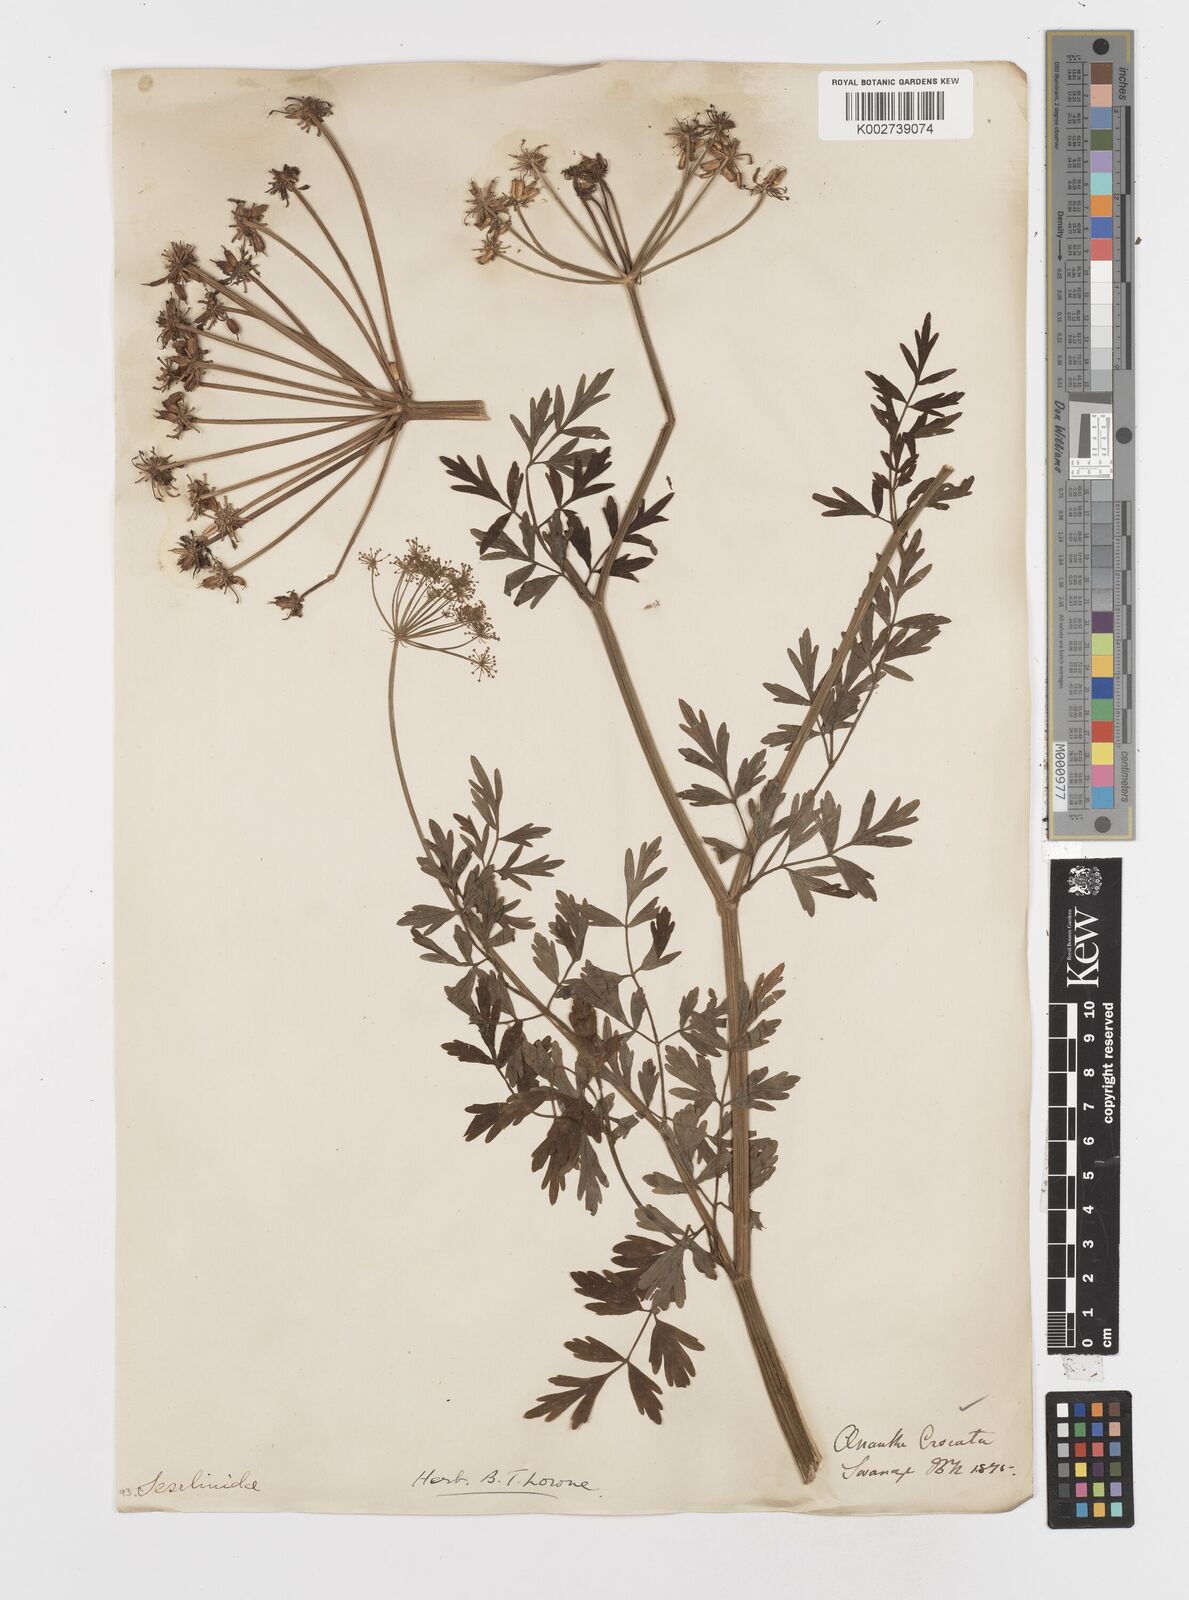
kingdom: Plantae
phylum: Tracheophyta
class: Magnoliopsida
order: Apiales
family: Apiaceae
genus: Oenanthe
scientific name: Oenanthe crocata
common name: Hemlock water-dropwort
